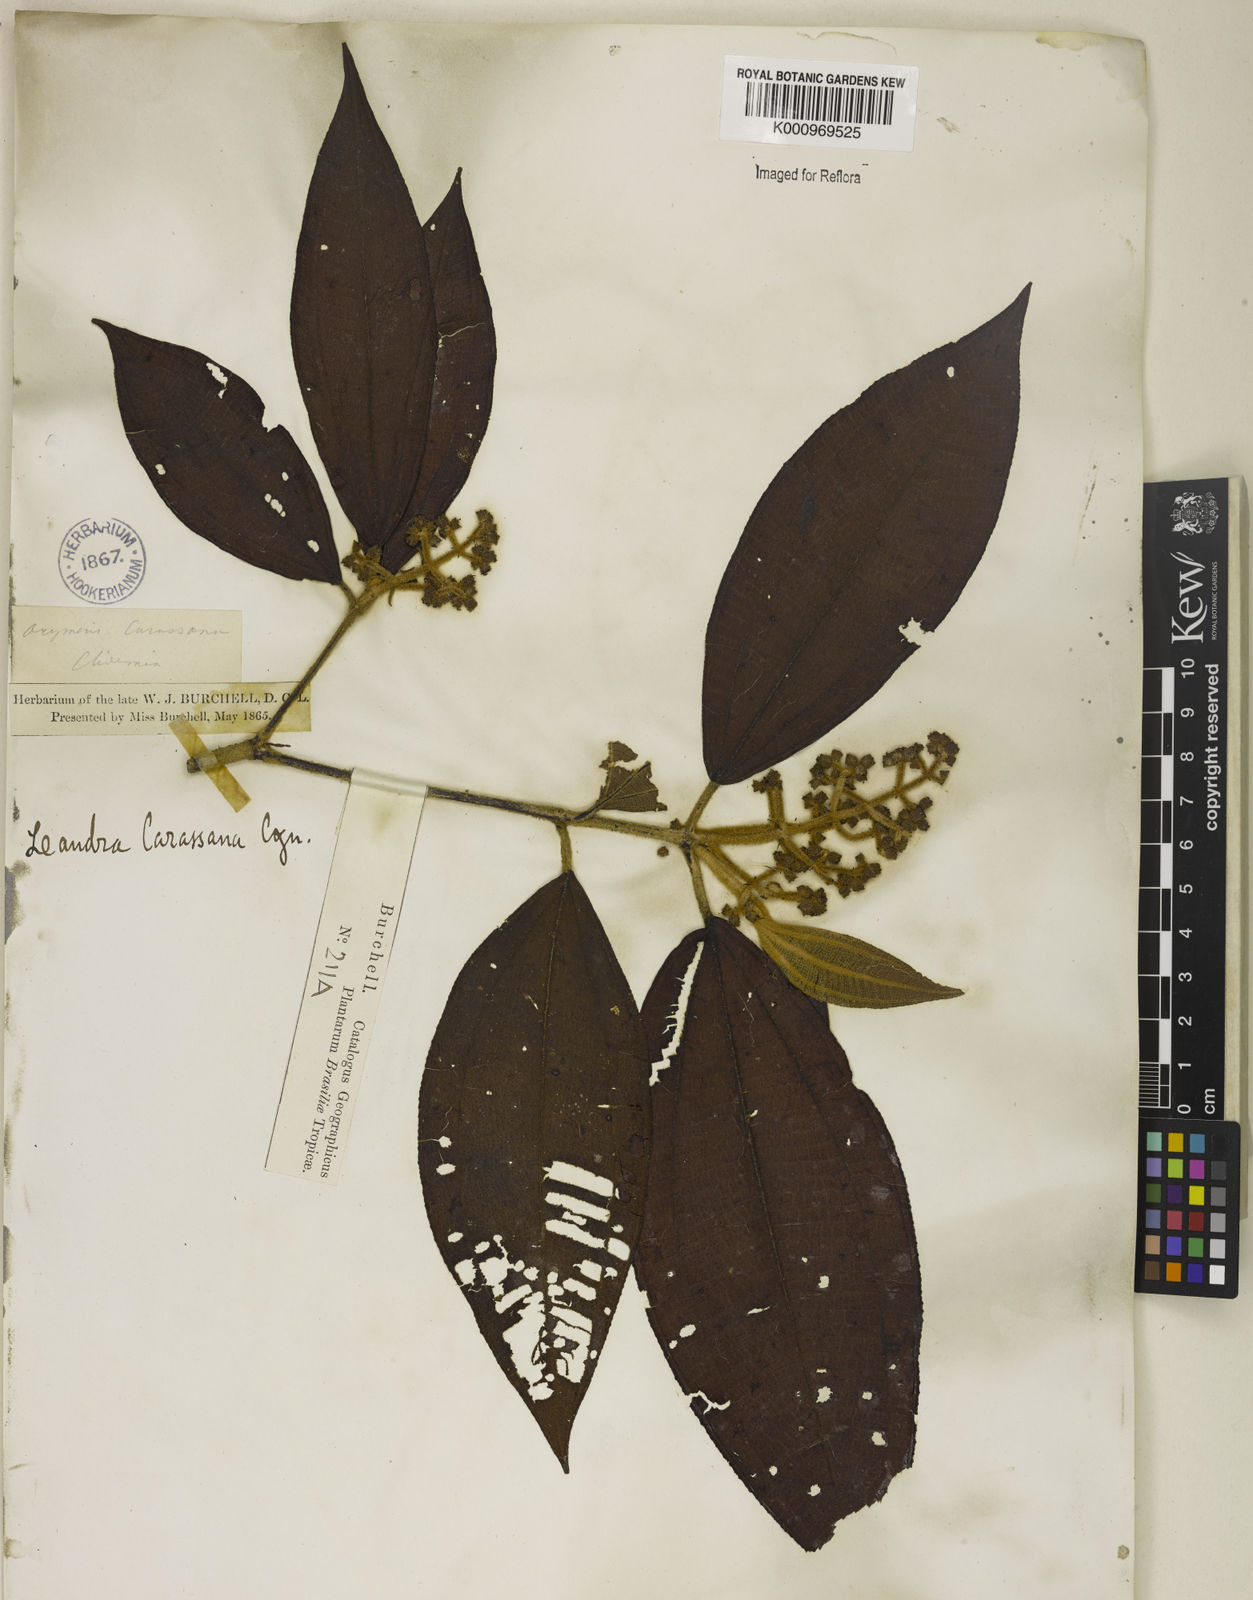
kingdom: Plantae
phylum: Tracheophyta
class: Magnoliopsida
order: Myrtales
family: Melastomataceae
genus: Miconia
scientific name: Miconia sublanata
